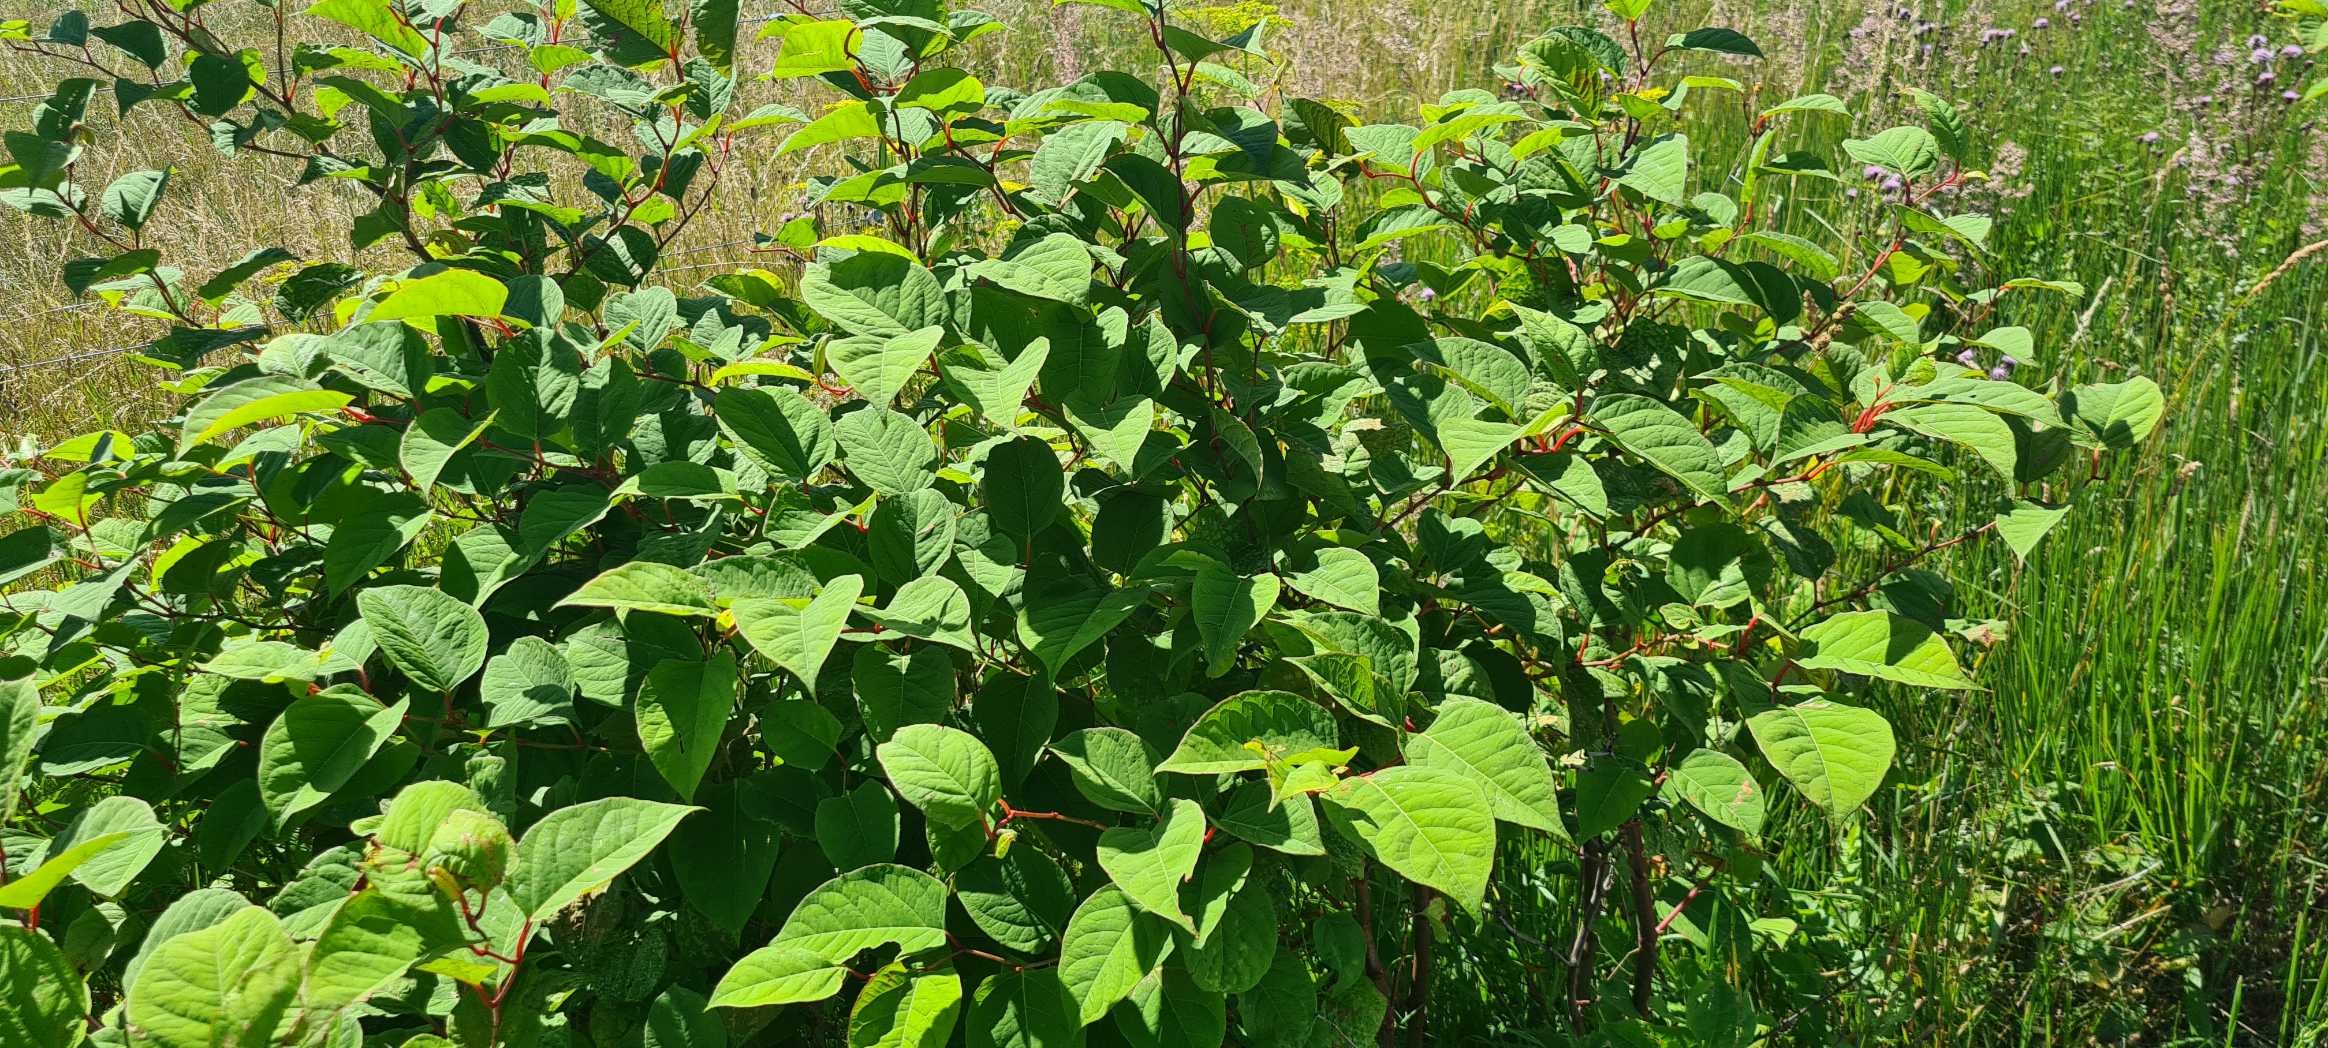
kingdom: Plantae
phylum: Tracheophyta
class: Magnoliopsida
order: Caryophyllales
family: Polygonaceae
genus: Reynoutria
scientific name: Reynoutria japonica
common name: Japan-pileurt
